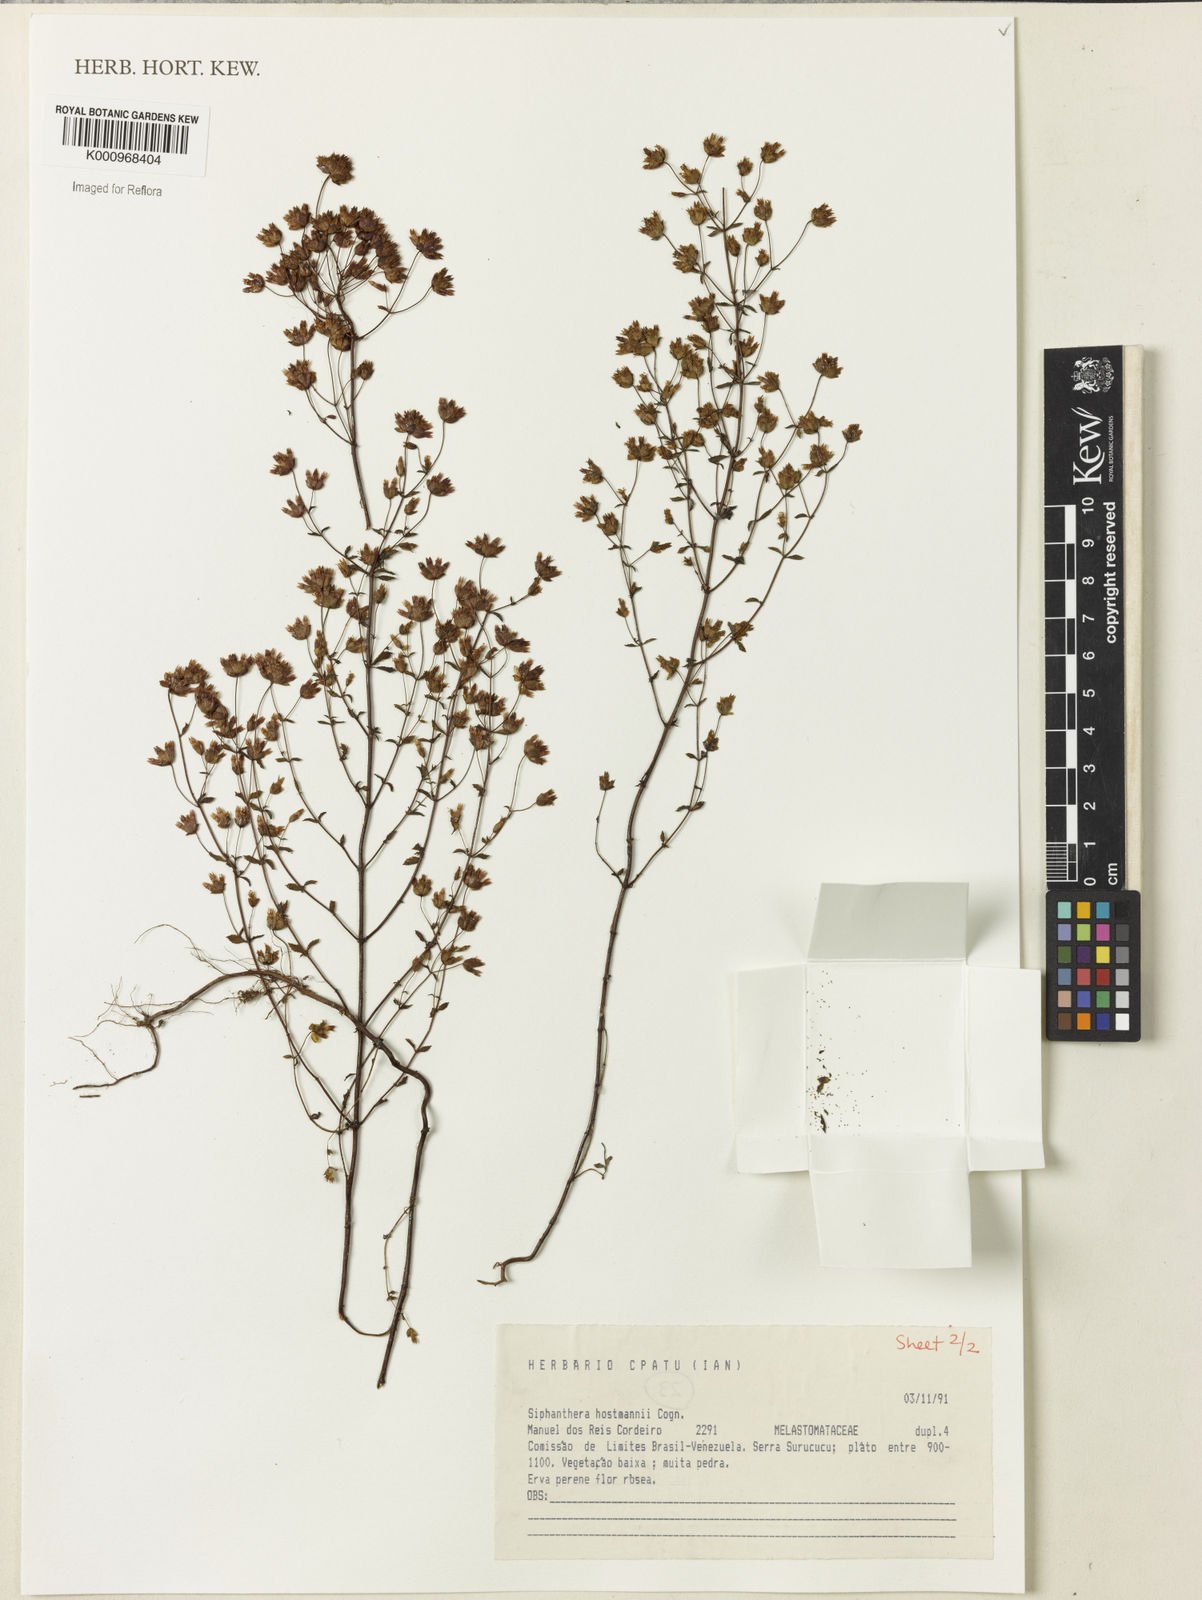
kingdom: Plantae
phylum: Tracheophyta
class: Magnoliopsida
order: Myrtales
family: Melastomataceae
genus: Siphanthera
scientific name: Siphanthera hostmannii
